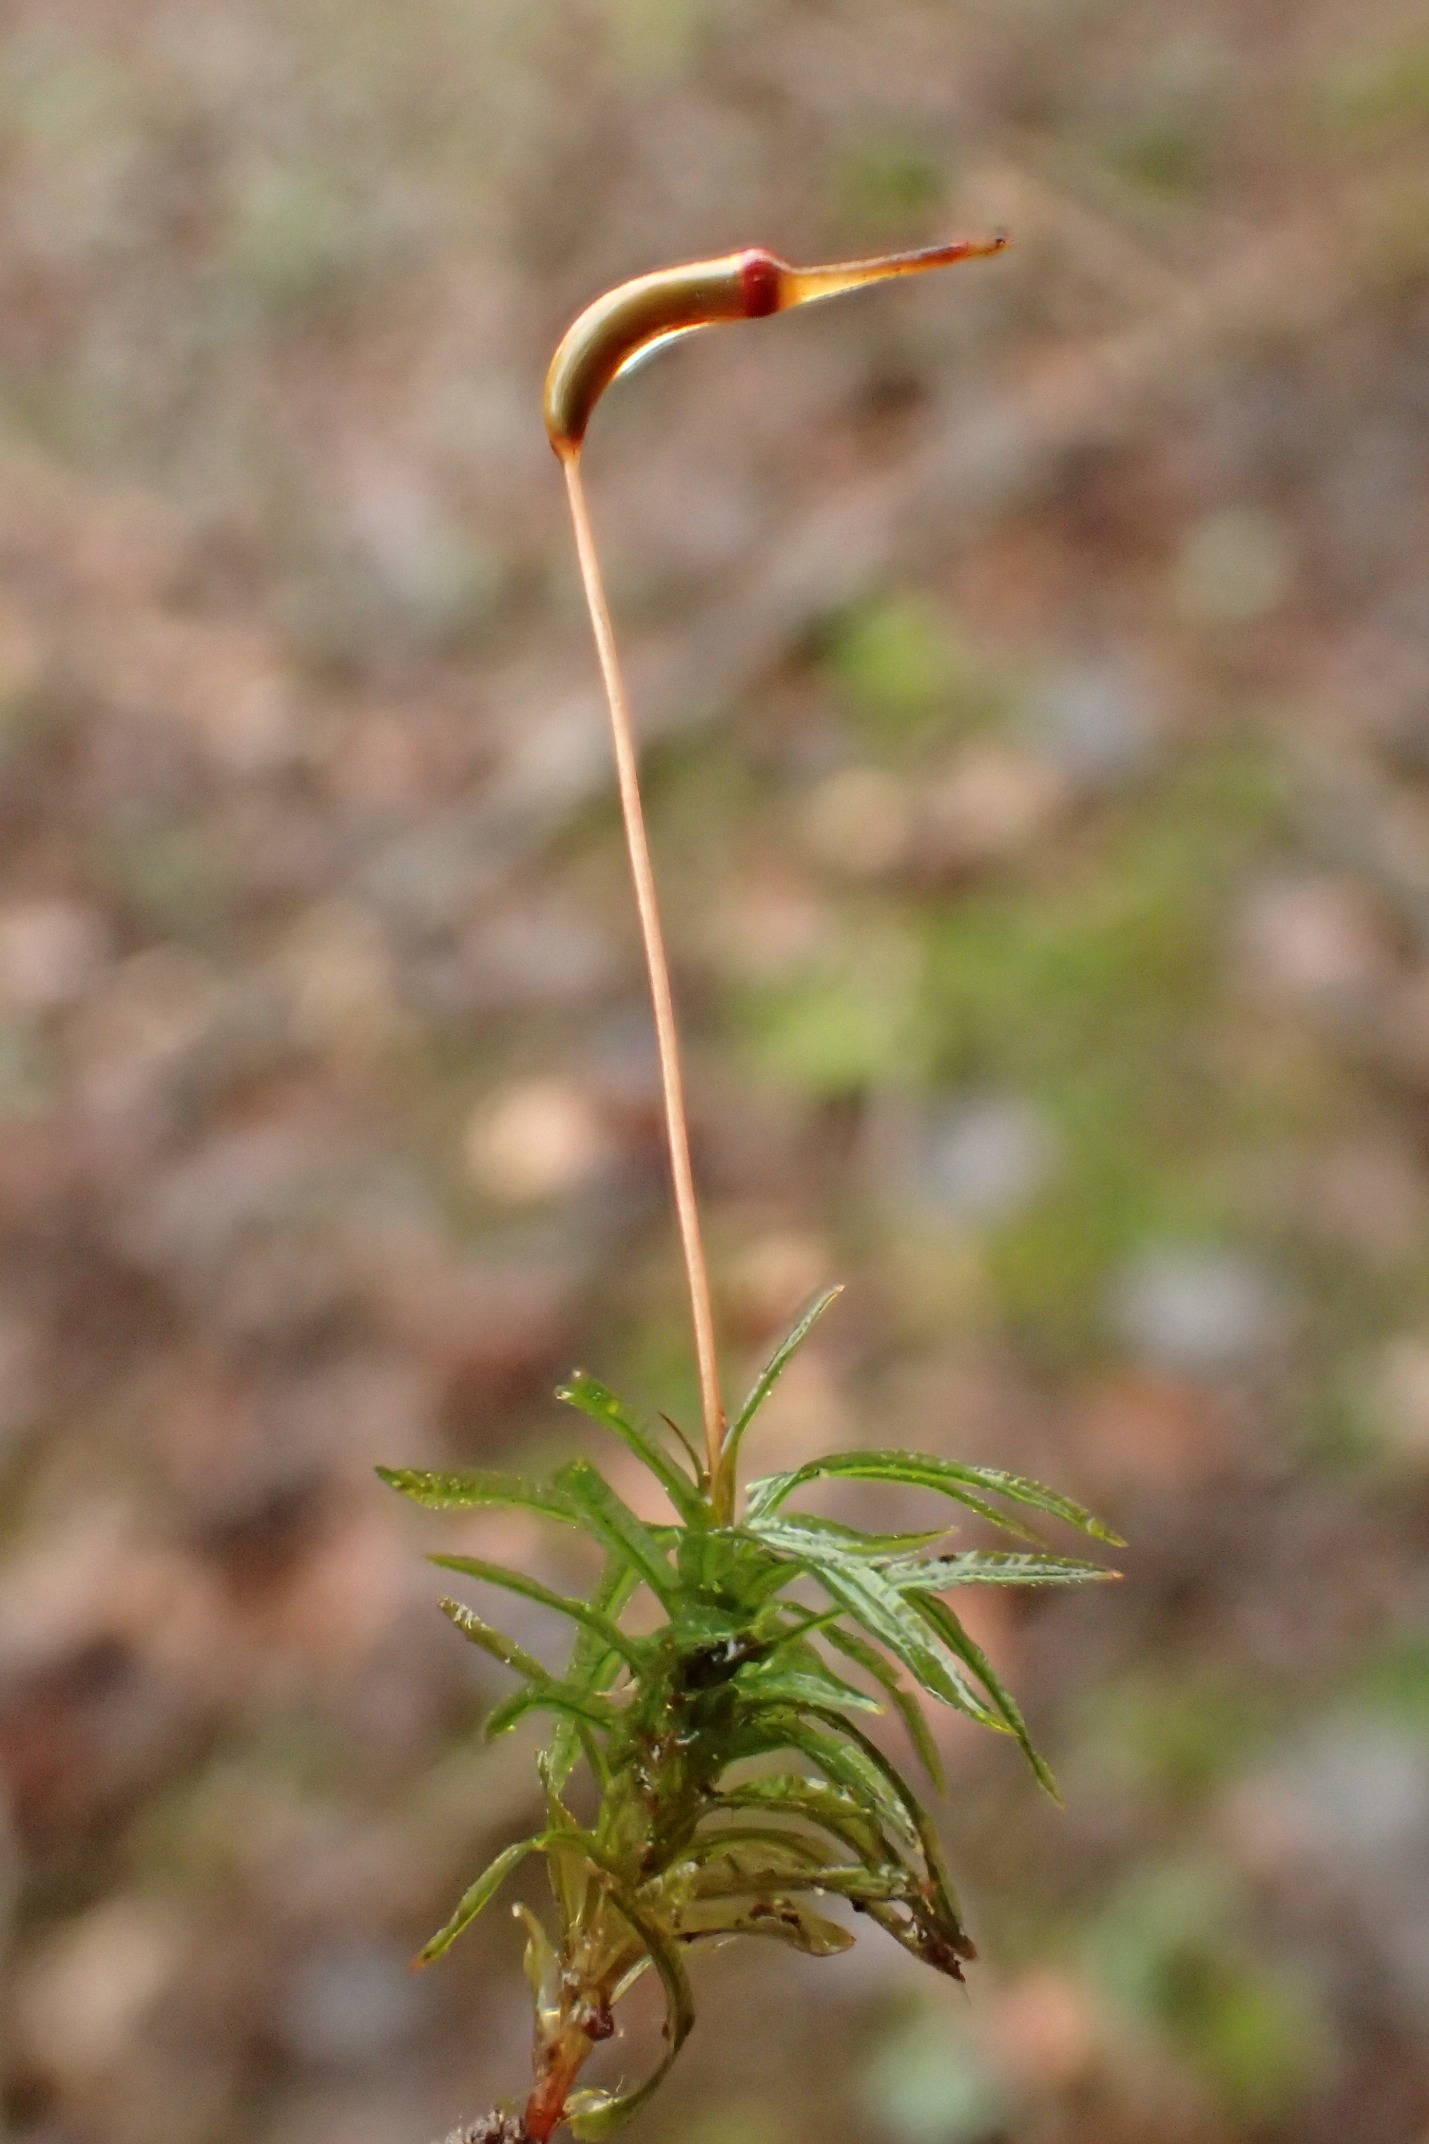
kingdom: Plantae
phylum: Bryophyta
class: Polytrichopsida
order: Polytrichales
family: Polytrichaceae
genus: Atrichum
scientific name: Atrichum undulatum
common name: Bølget katrinemos
